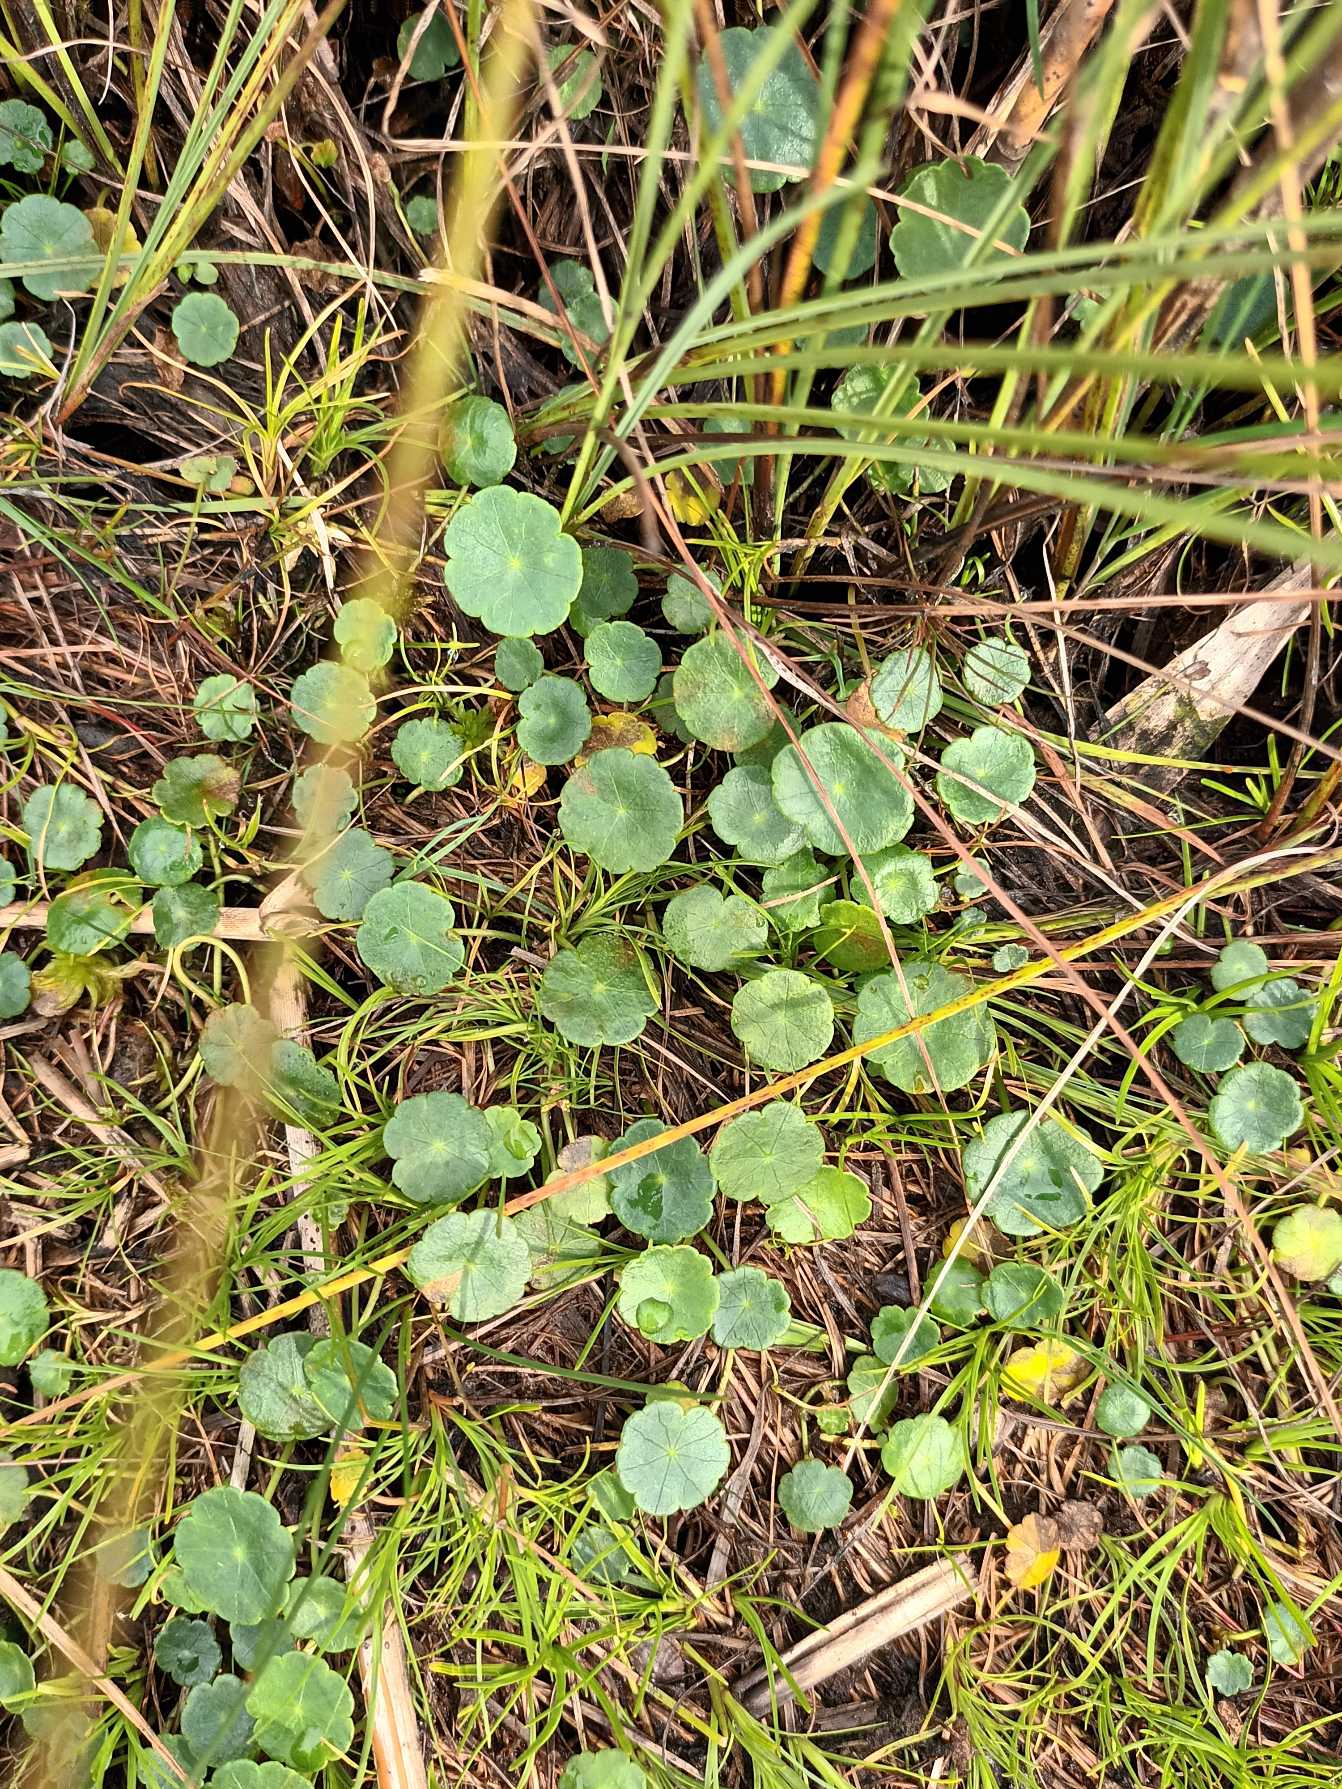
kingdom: Plantae
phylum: Tracheophyta
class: Magnoliopsida
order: Apiales
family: Araliaceae
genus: Hydrocotyle
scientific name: Hydrocotyle vulgaris
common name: Vandnavle
